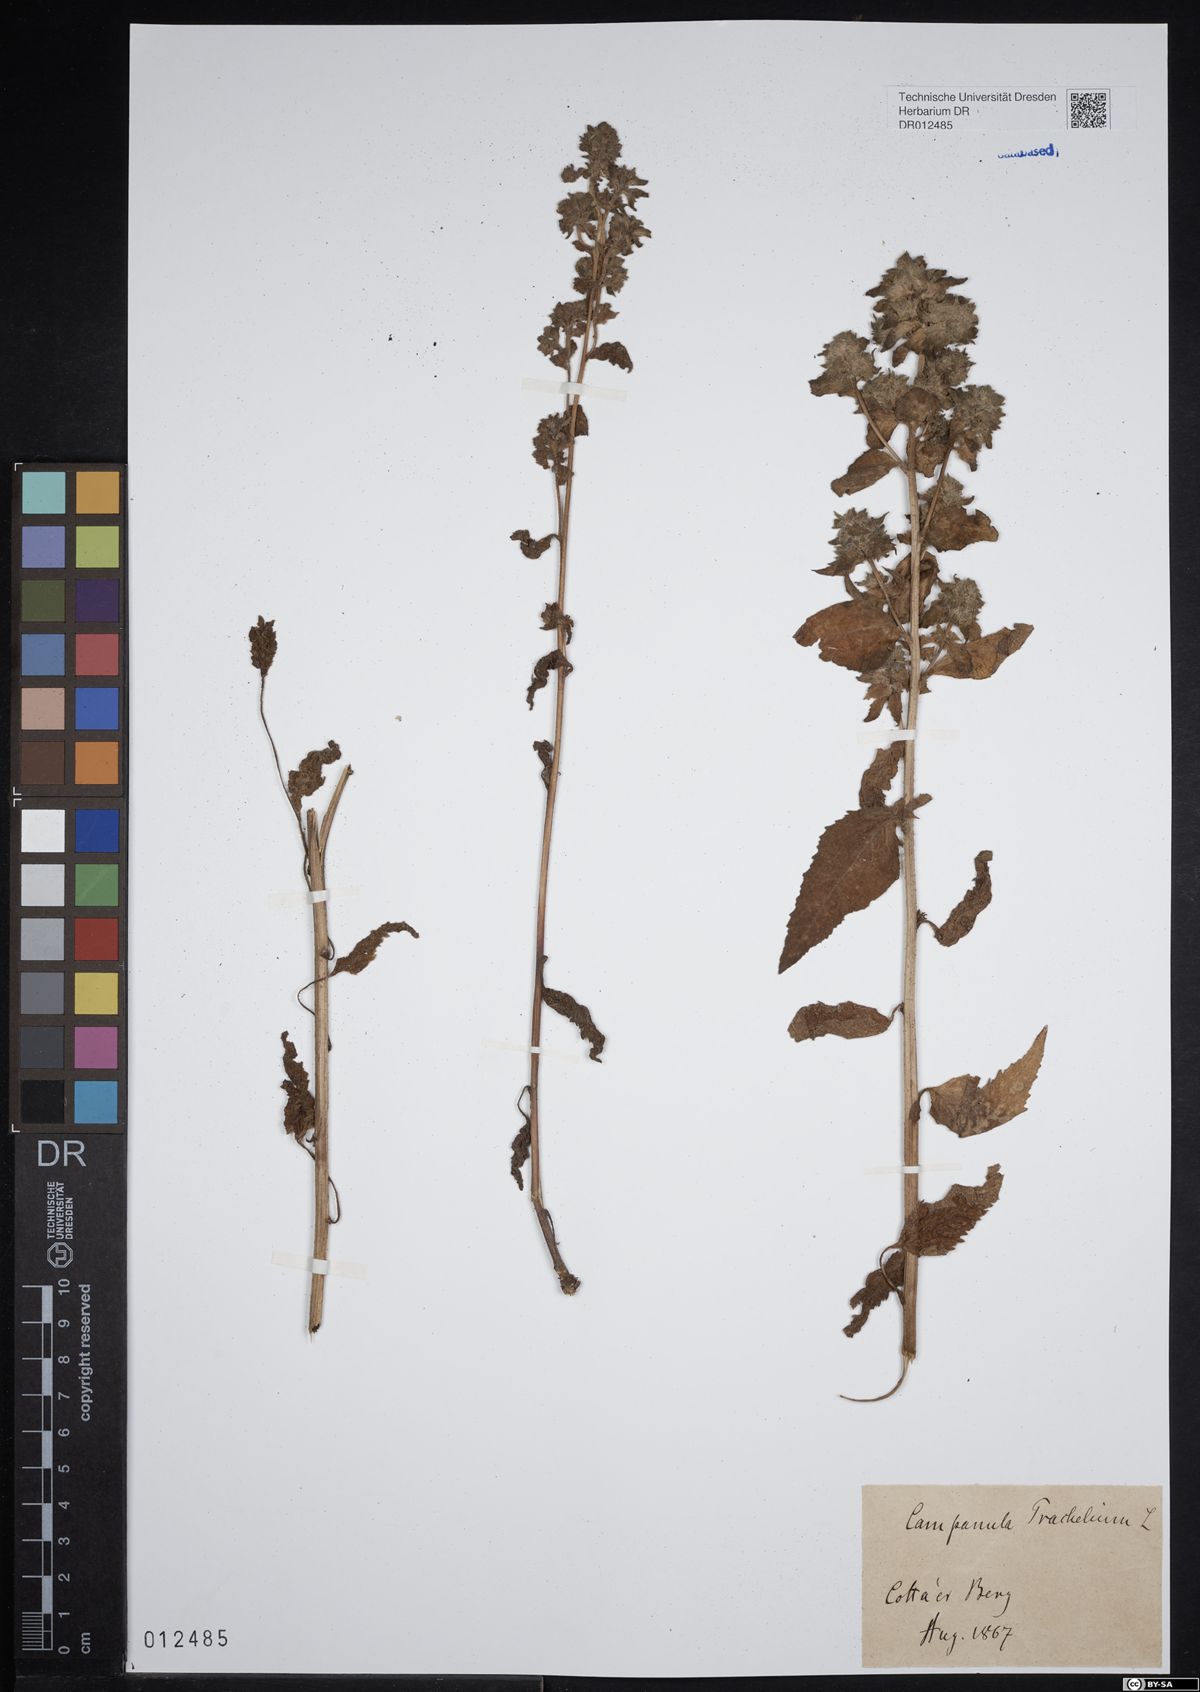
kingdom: Plantae
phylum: Tracheophyta
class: Magnoliopsida
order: Asterales
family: Campanulaceae
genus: Campanula
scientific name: Campanula trachelium
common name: Nettle-leaved bellflower
